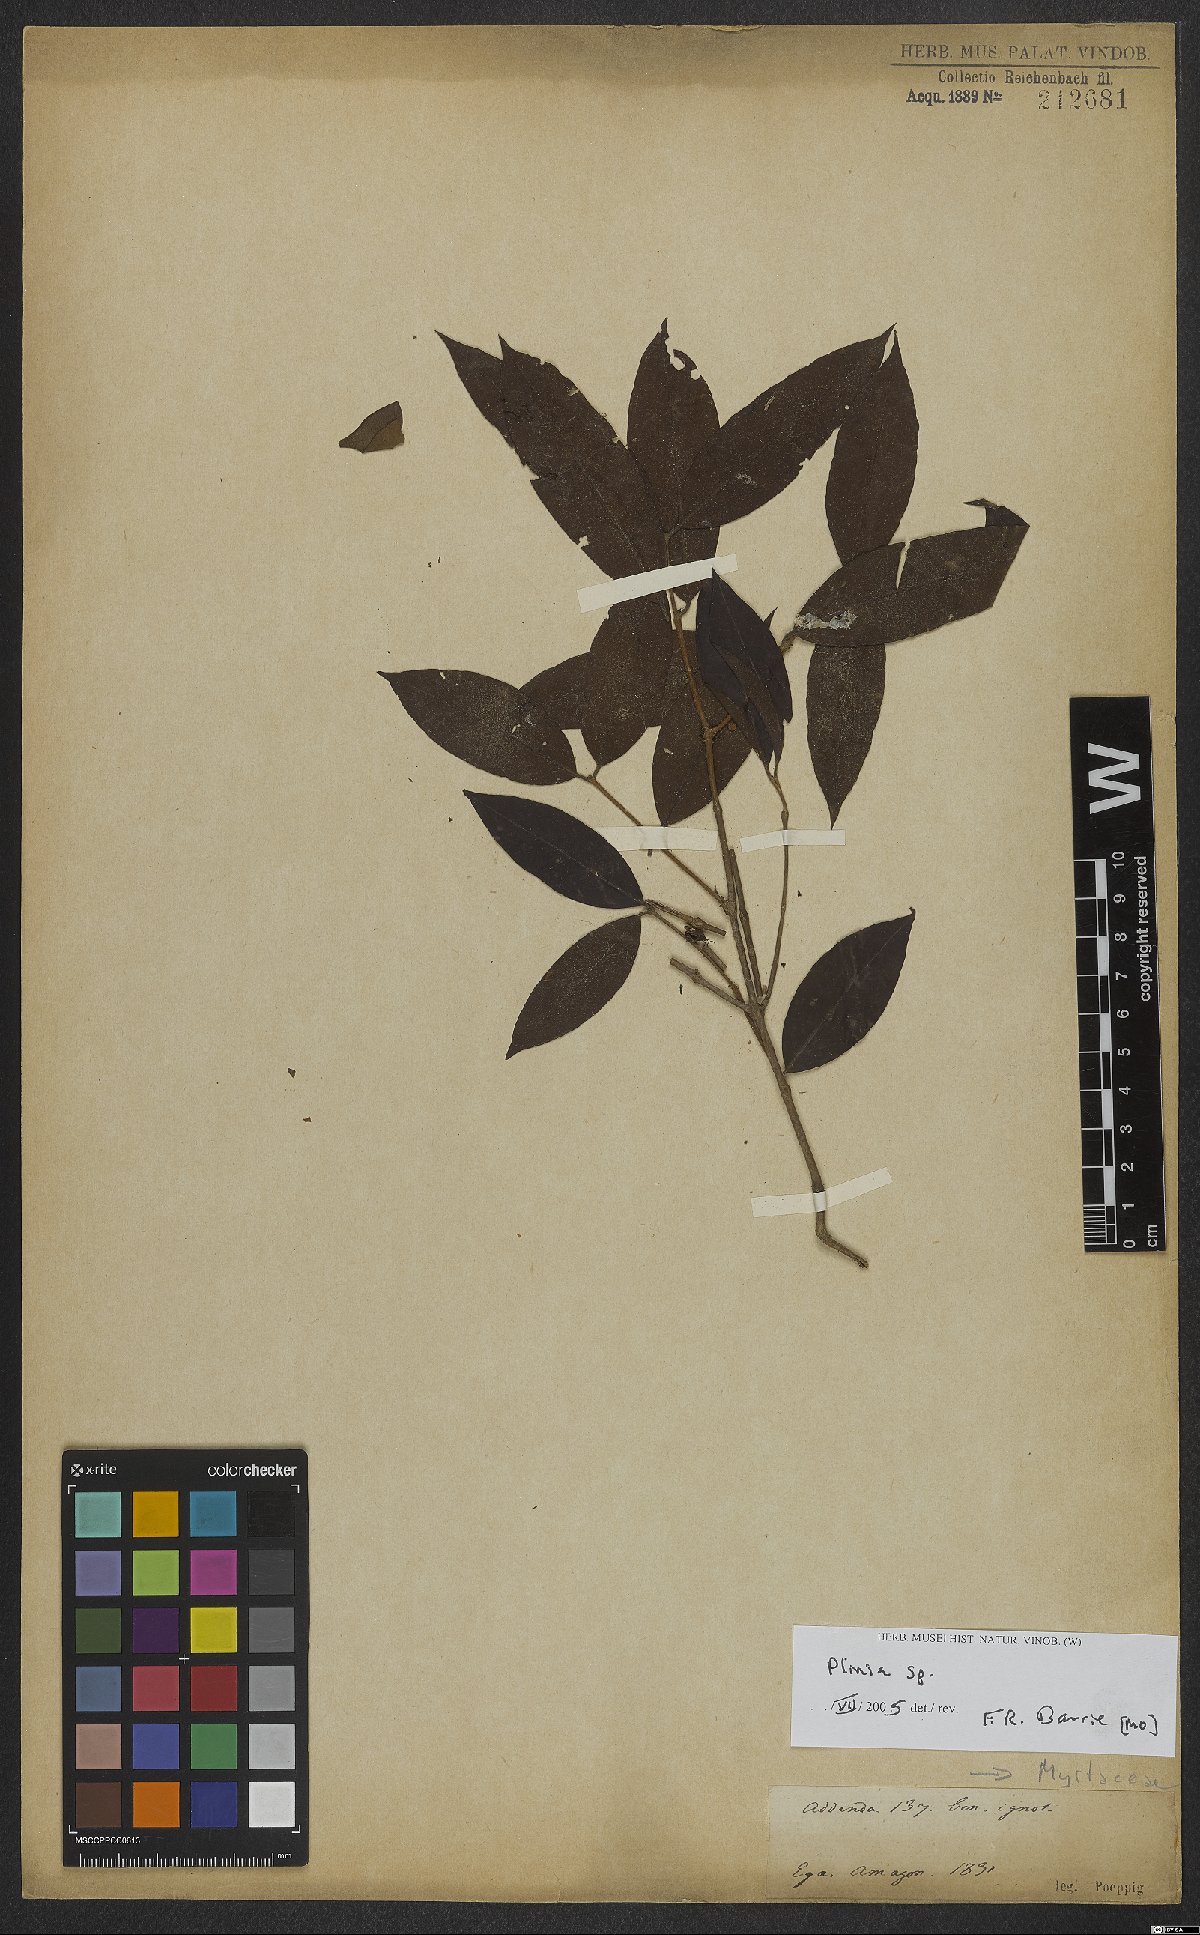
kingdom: Plantae
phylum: Tracheophyta
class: Magnoliopsida
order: Myrtales
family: Myrtaceae
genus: Plinia
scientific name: Plinia
